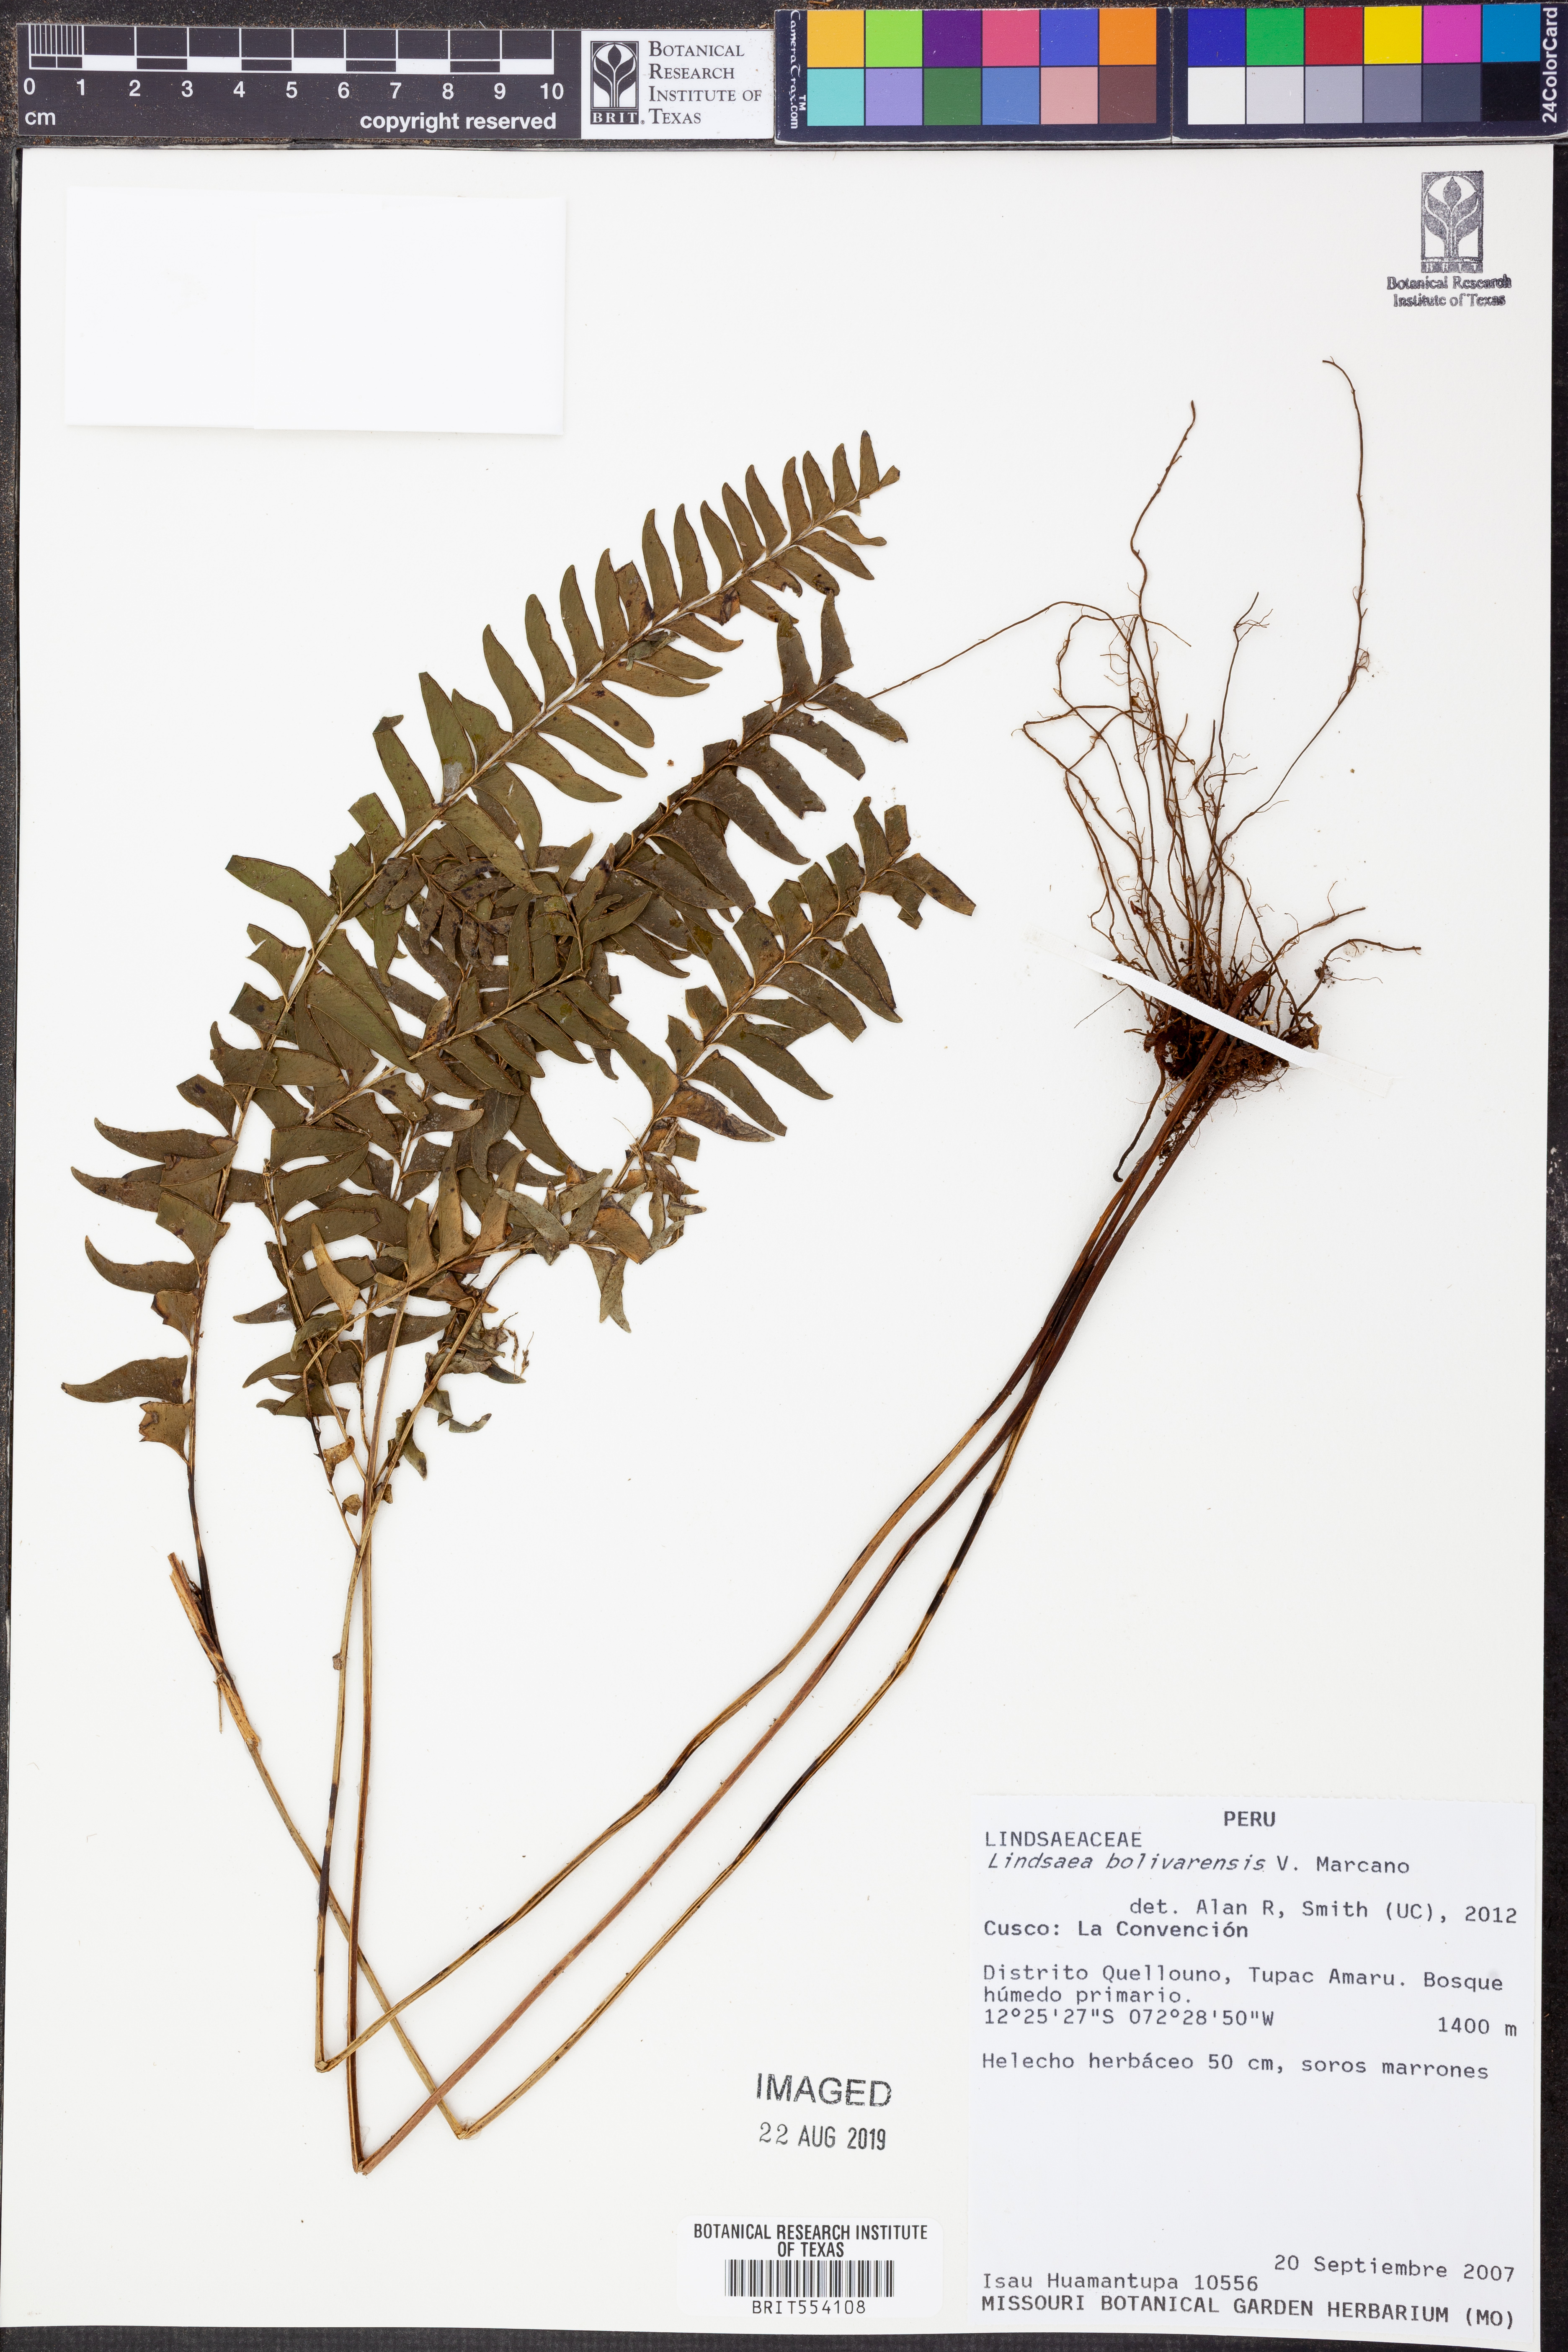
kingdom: Plantae
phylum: Tracheophyta
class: Polypodiopsida
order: Polypodiales
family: Lindsaeaceae
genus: Lindsaea
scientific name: Lindsaea bolivarensis
